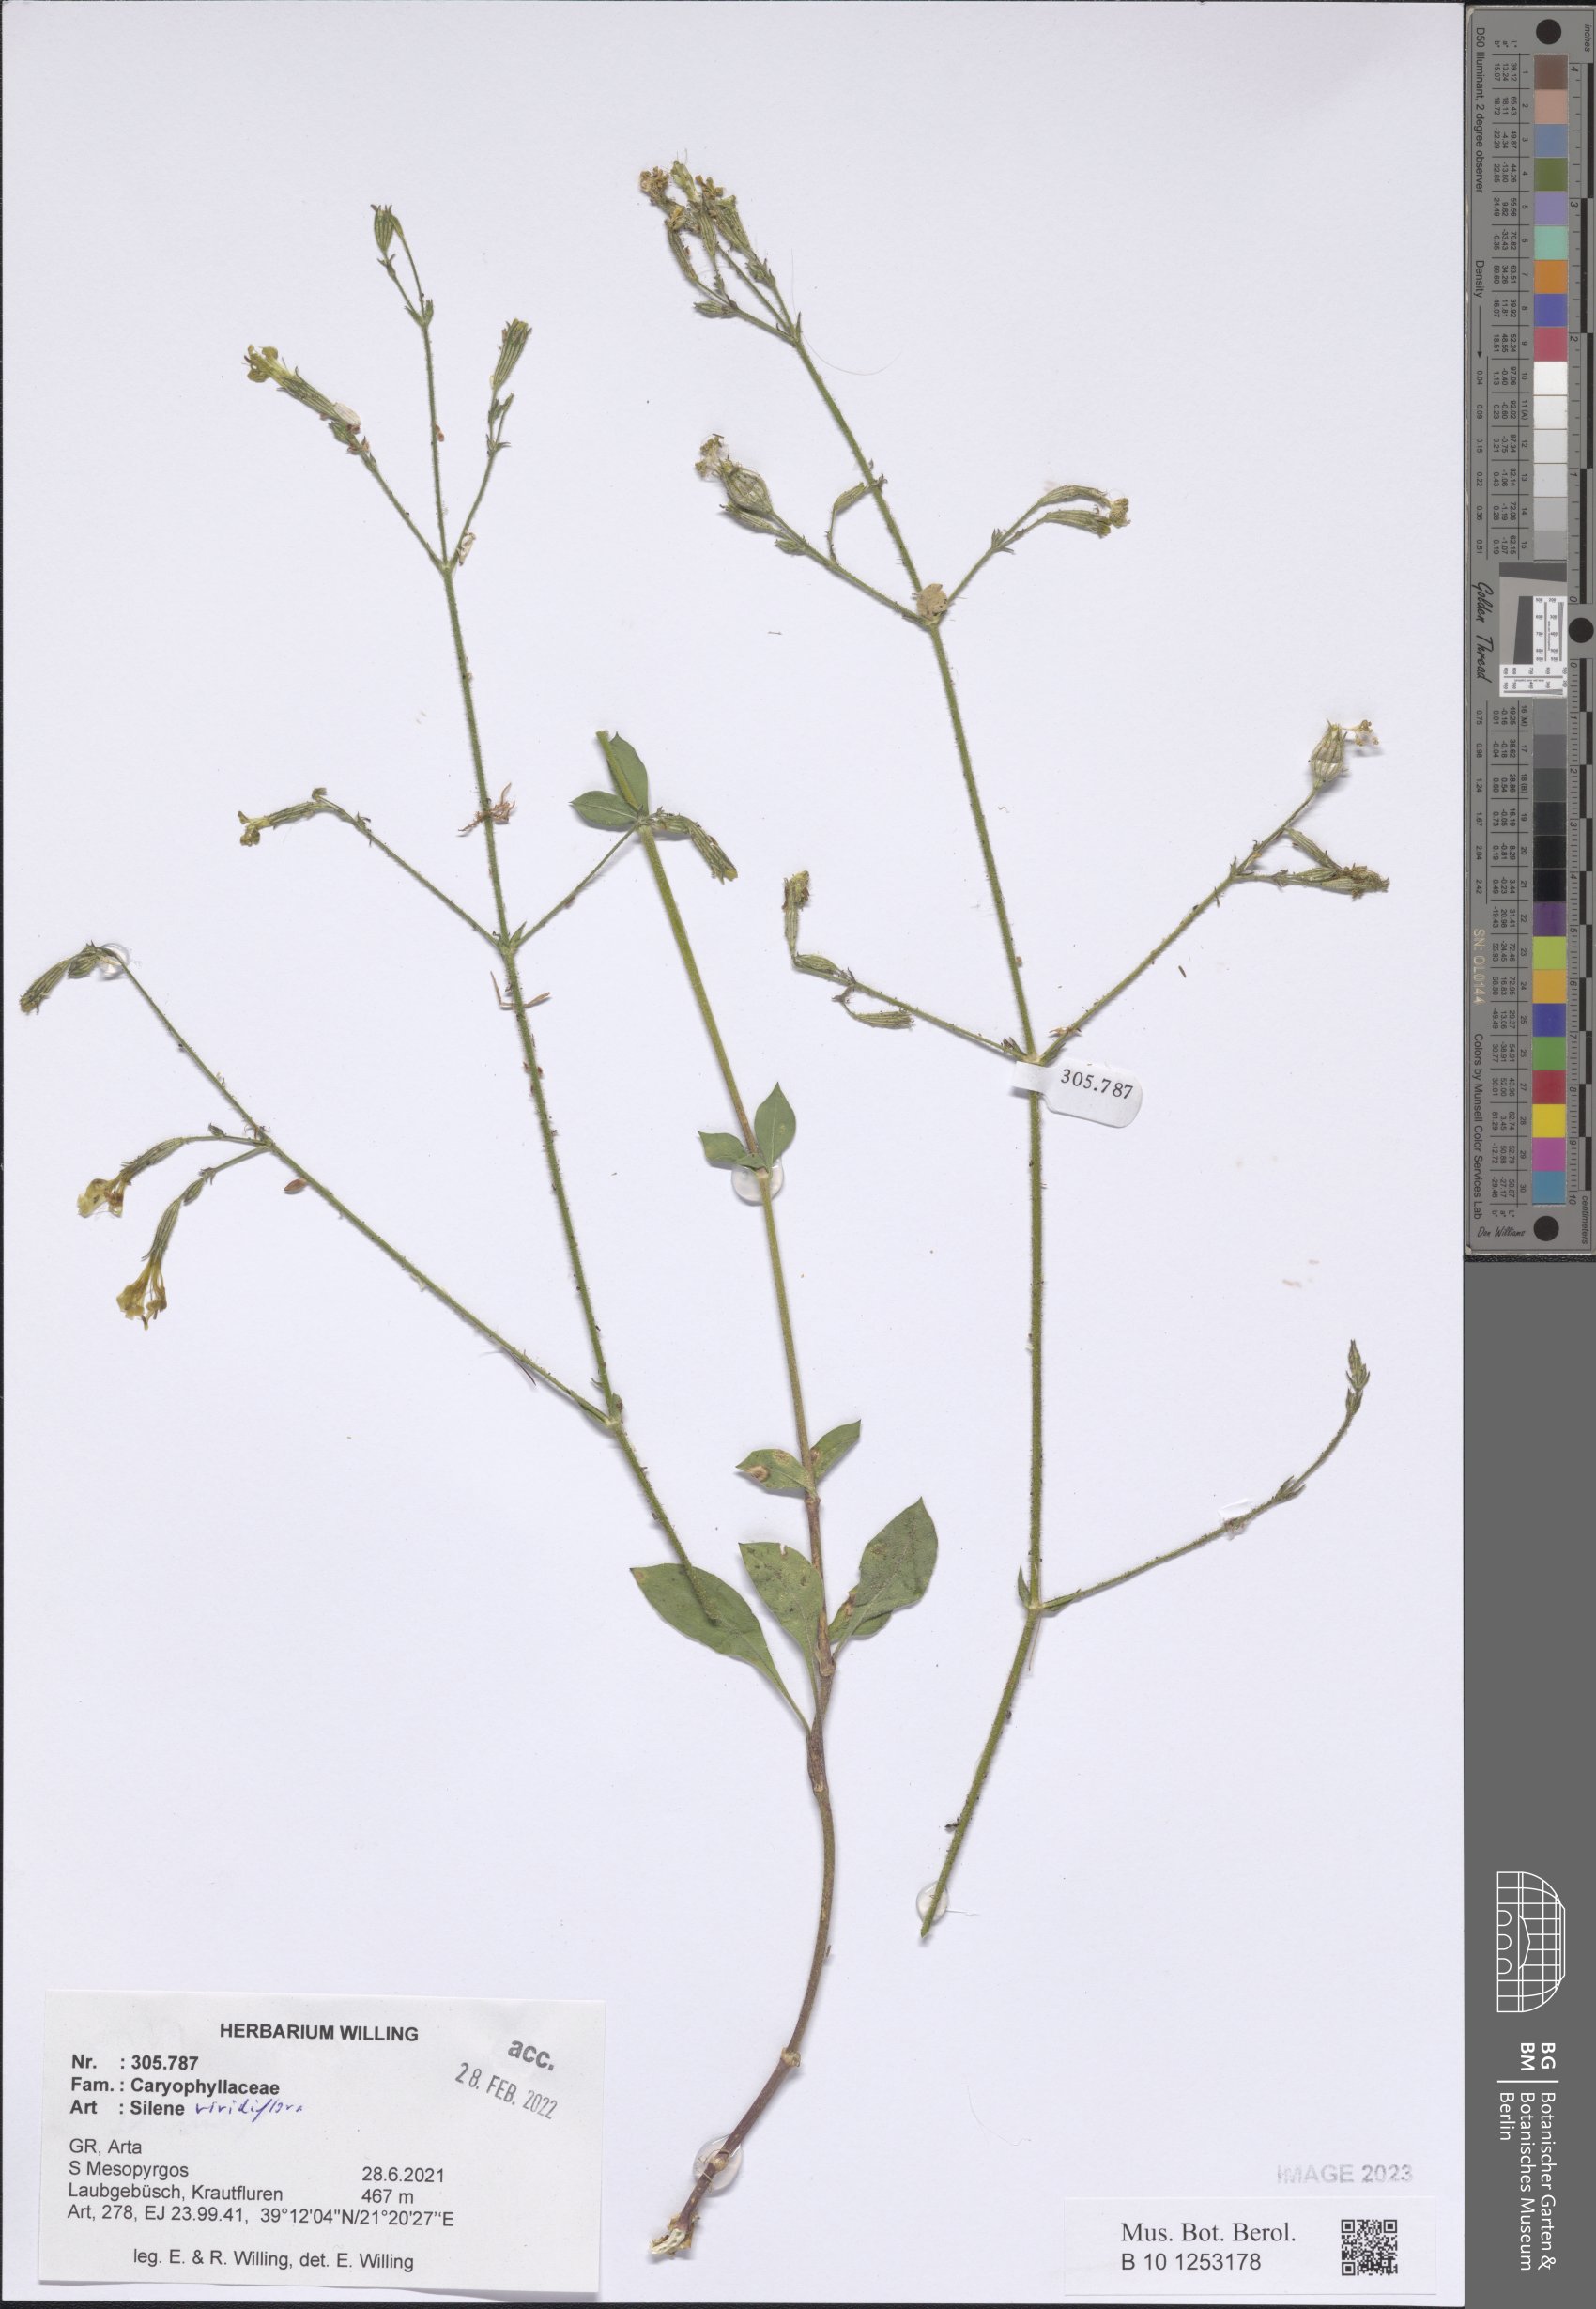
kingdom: Plantae
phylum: Tracheophyta
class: Magnoliopsida
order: Caryophyllales
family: Caryophyllaceae
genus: Silene
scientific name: Silene viridiflora
